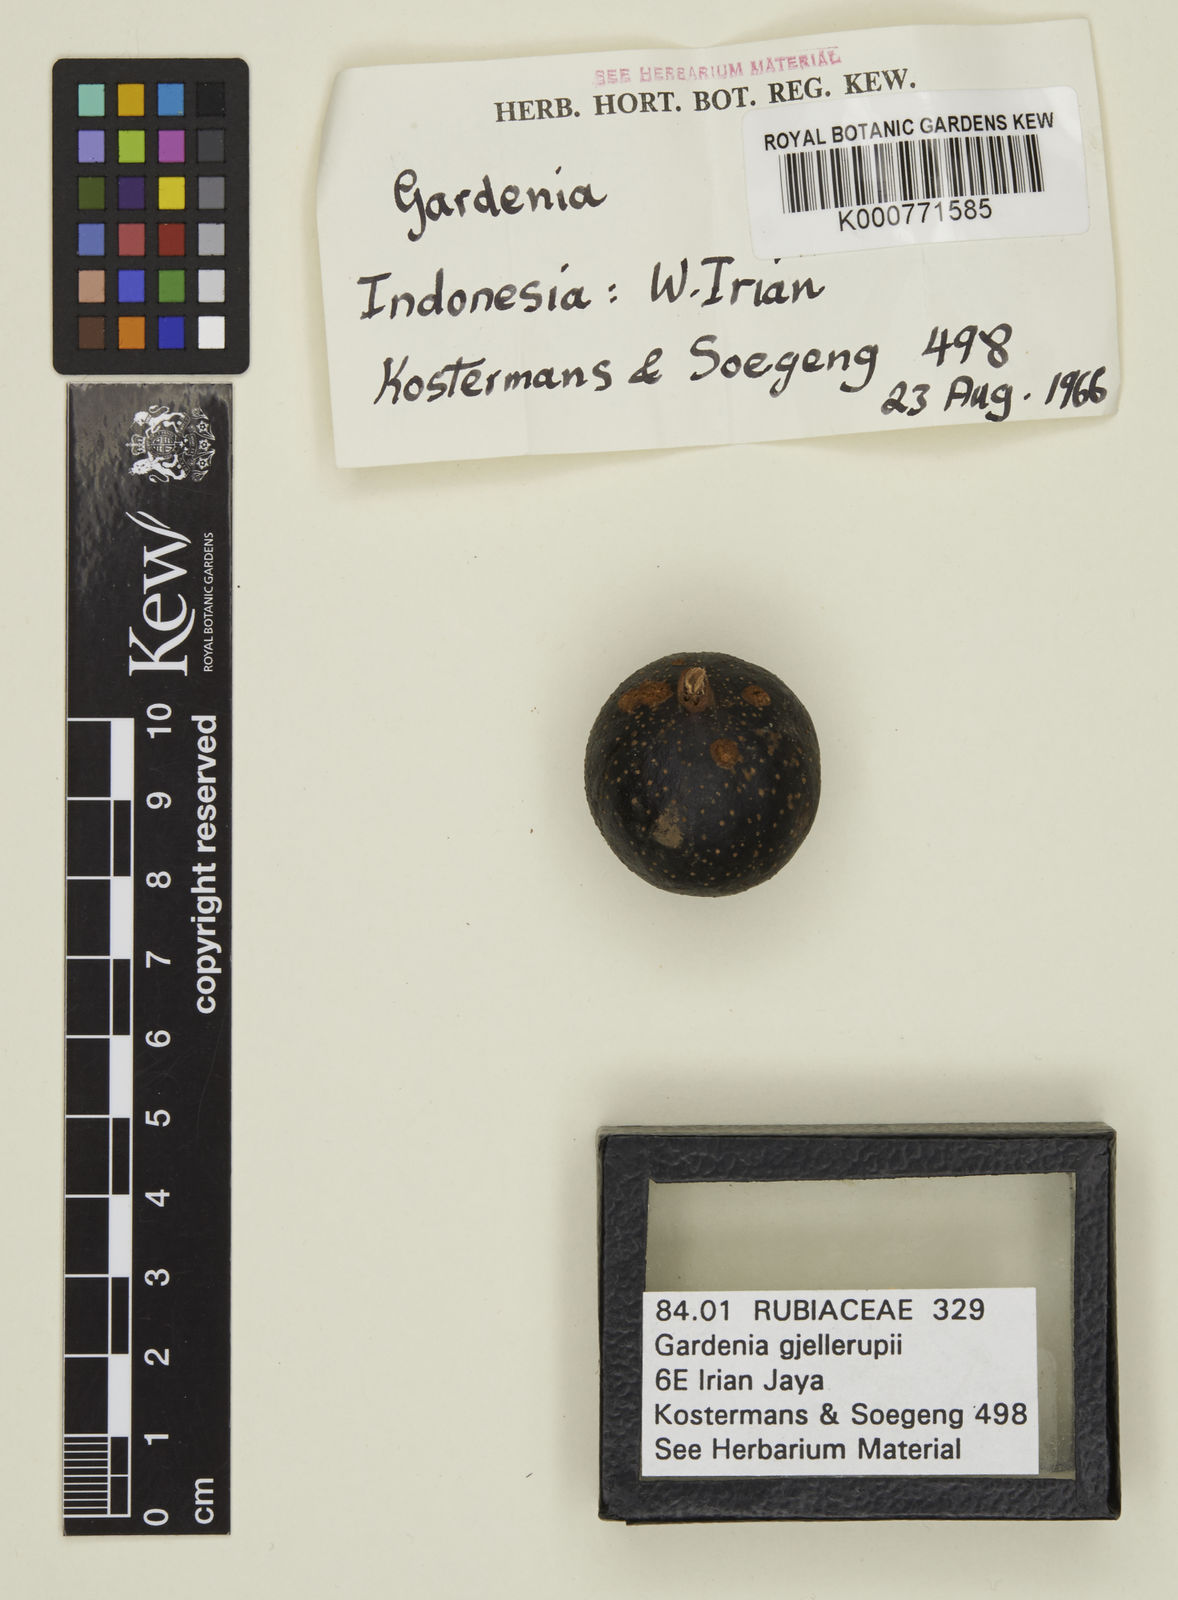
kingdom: Plantae
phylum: Tracheophyta
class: Magnoliopsida
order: Gentianales
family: Rubiaceae
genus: Gardenia
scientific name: Gardenia gjellerupii
